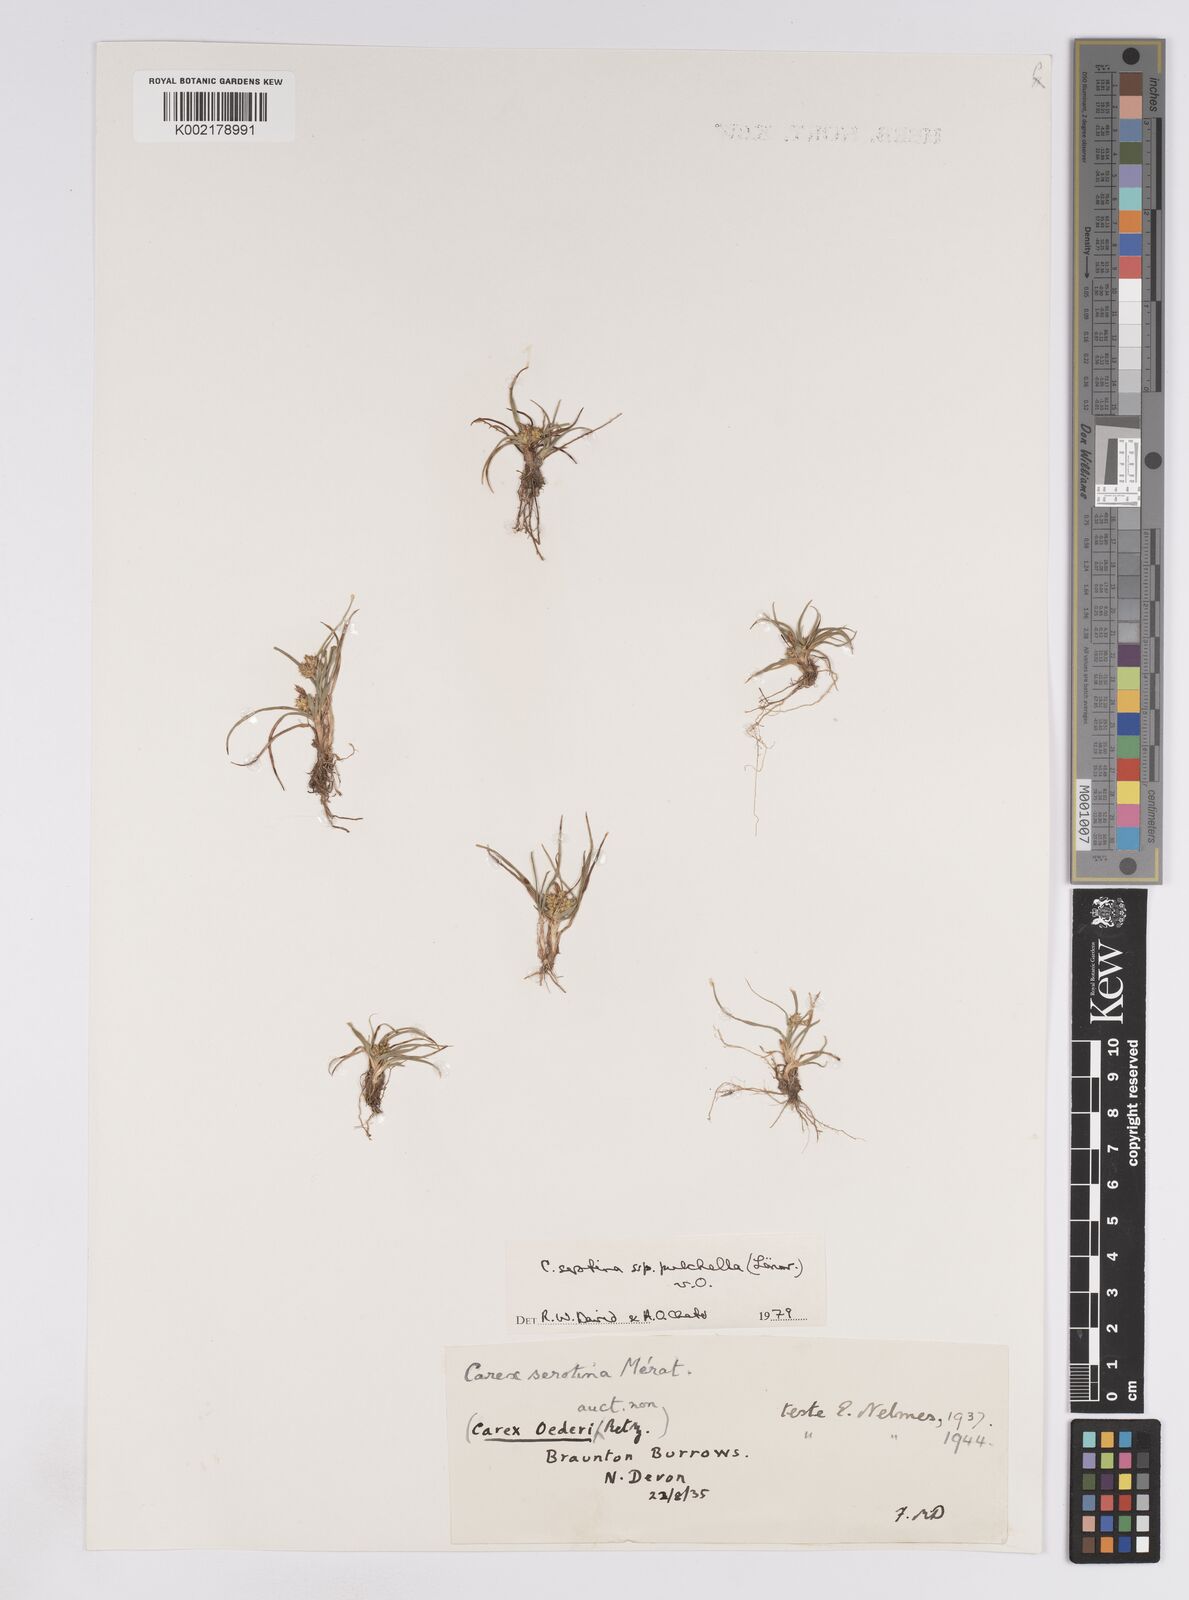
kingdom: Plantae
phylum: Tracheophyta
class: Liliopsida
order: Poales
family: Cyperaceae
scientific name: Cyperaceae
